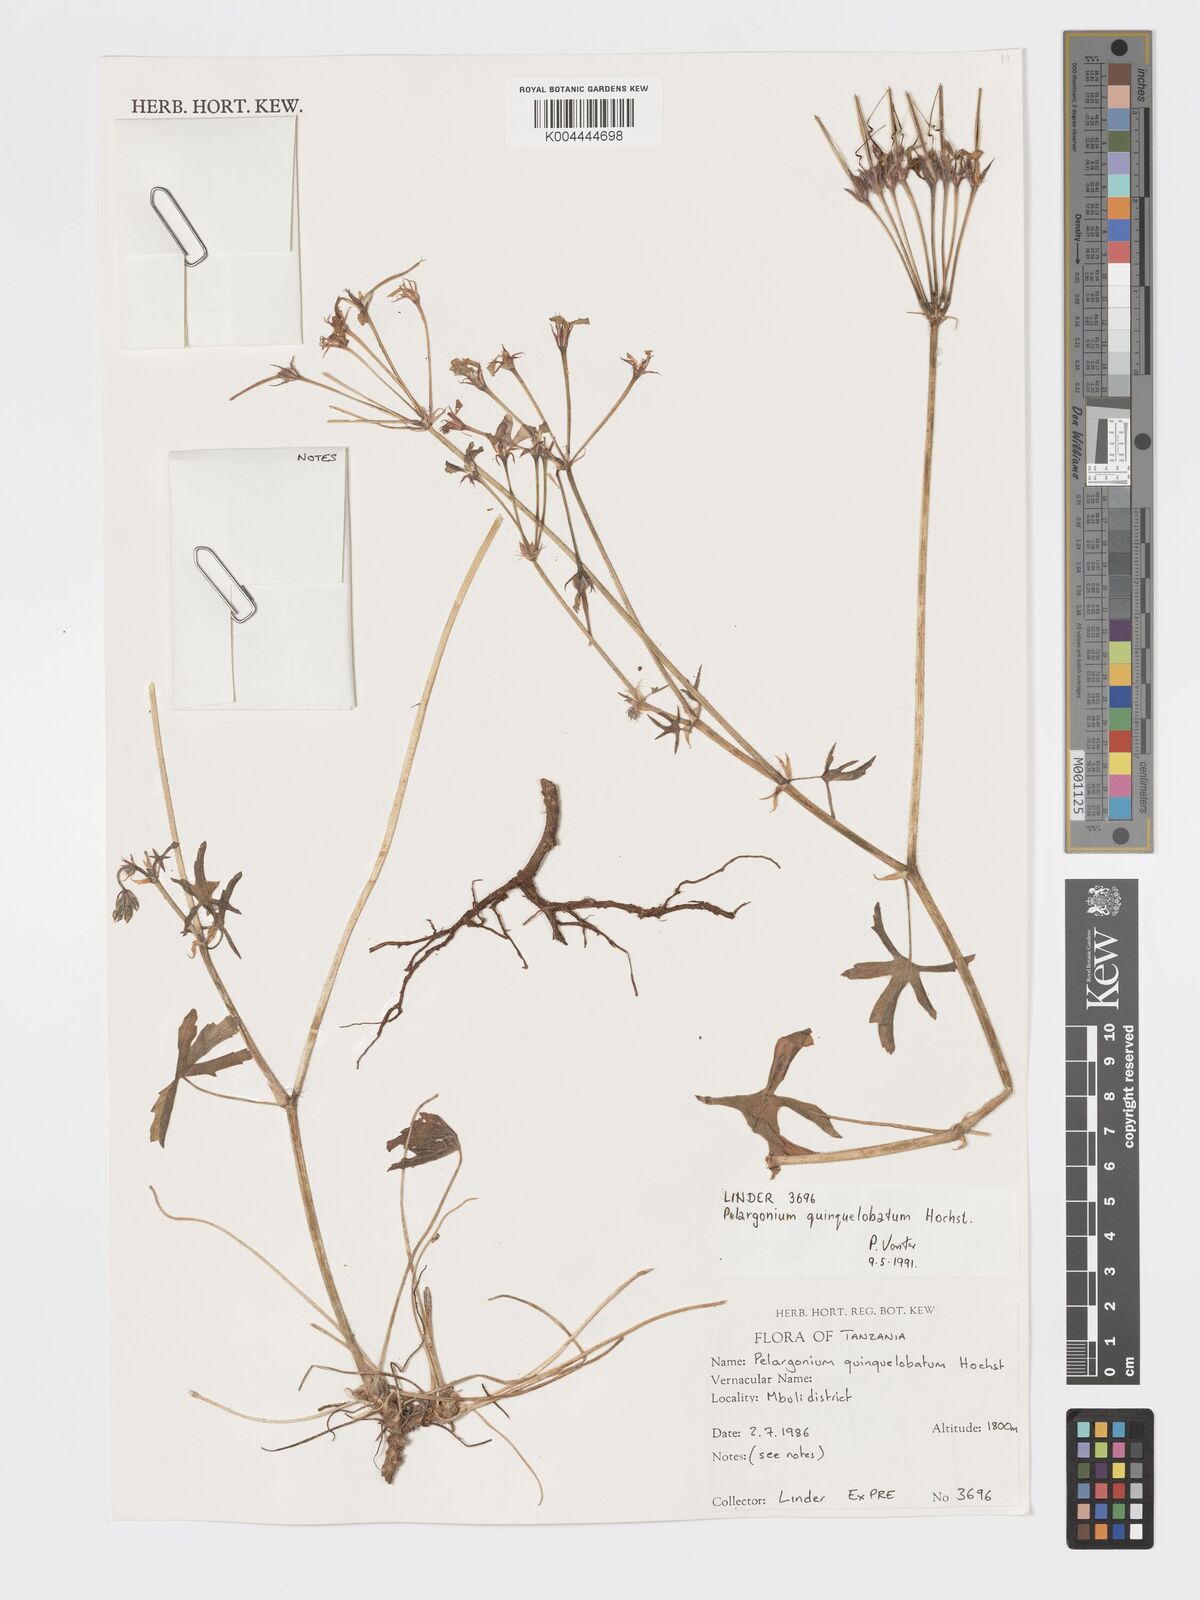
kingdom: Plantae
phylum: Tracheophyta
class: Magnoliopsida
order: Geraniales
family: Geraniaceae
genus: Pelargonium
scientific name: Pelargonium quinquelobatum
